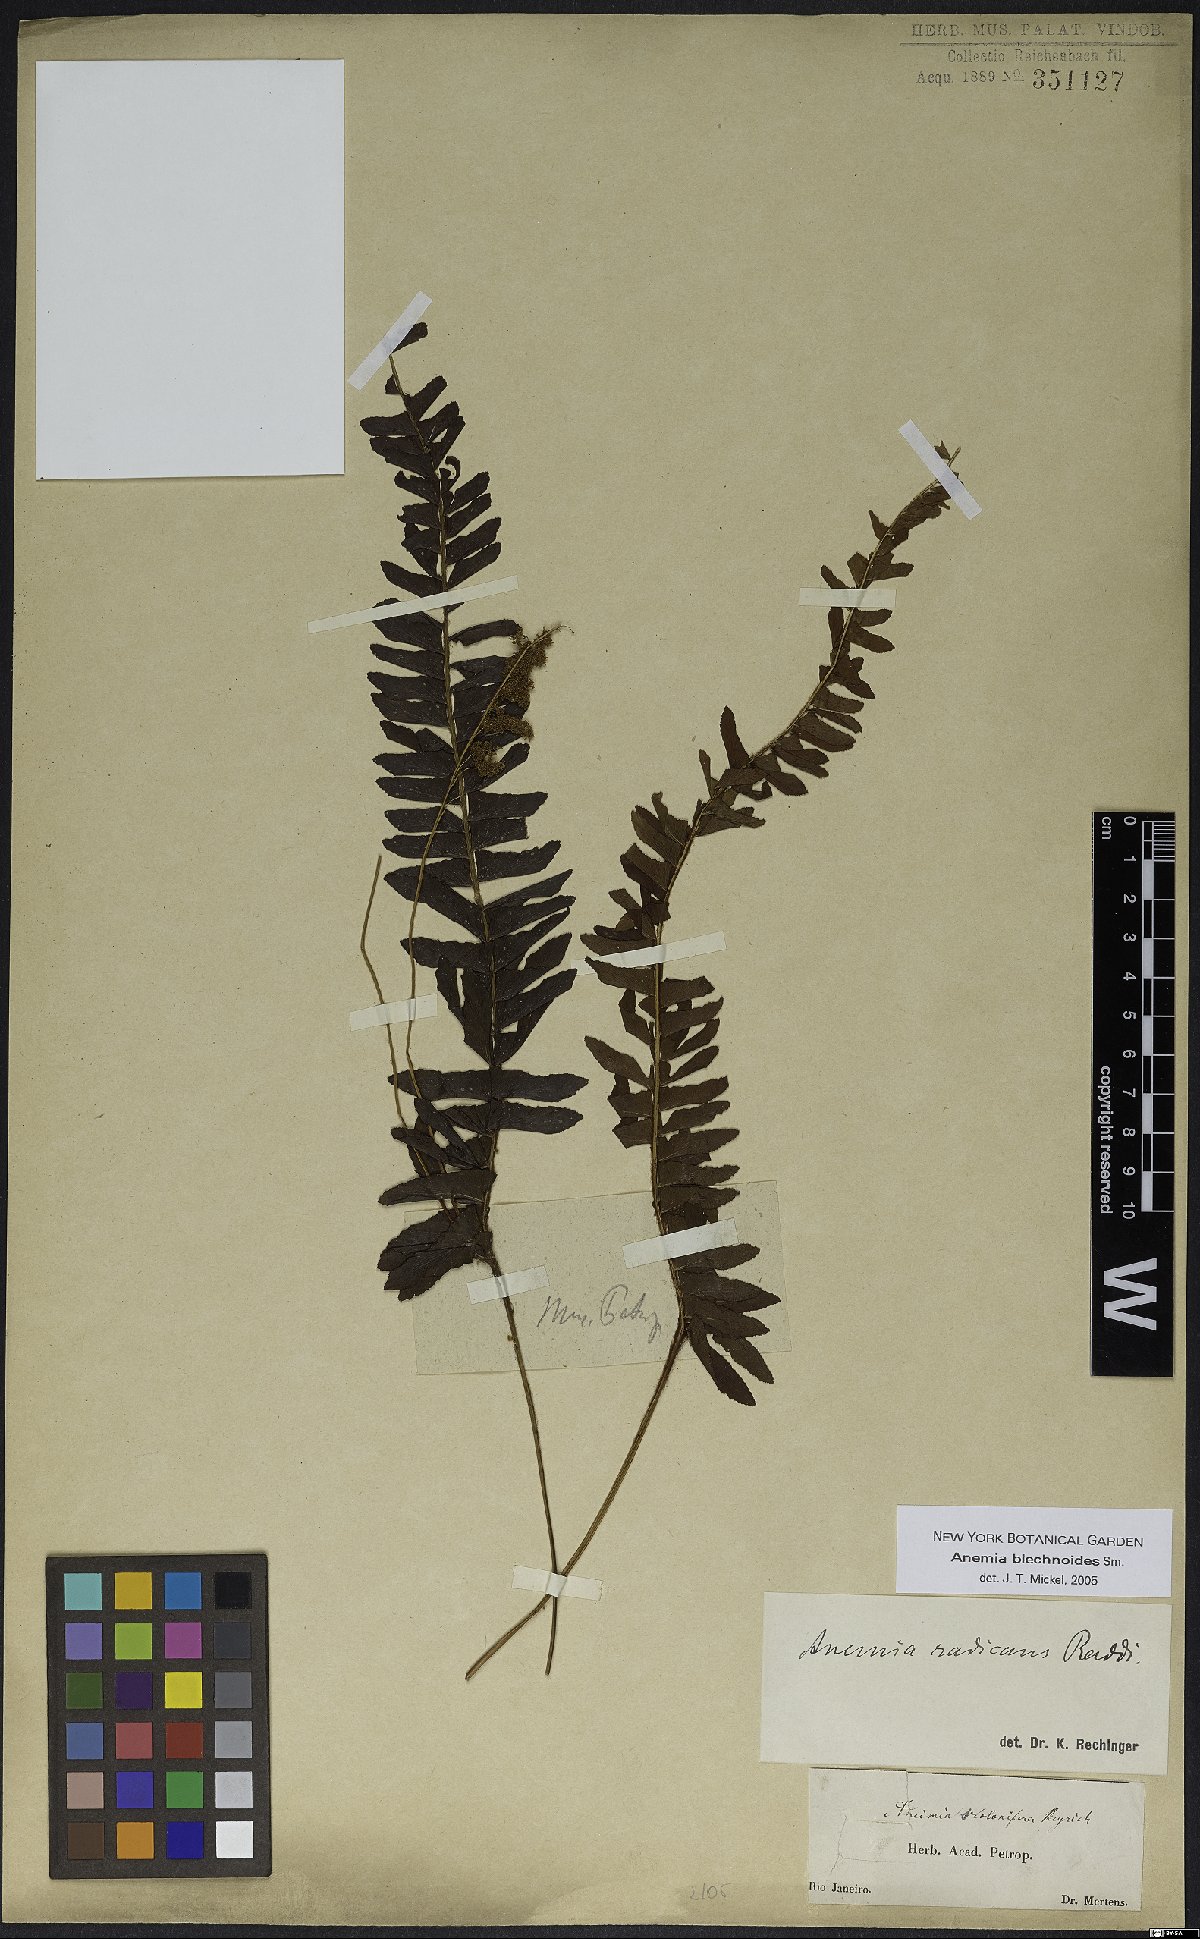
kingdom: Plantae
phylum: Tracheophyta
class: Polypodiopsida
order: Schizaeales
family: Anemiaceae
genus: Anemia
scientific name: Anemia spicantoides
